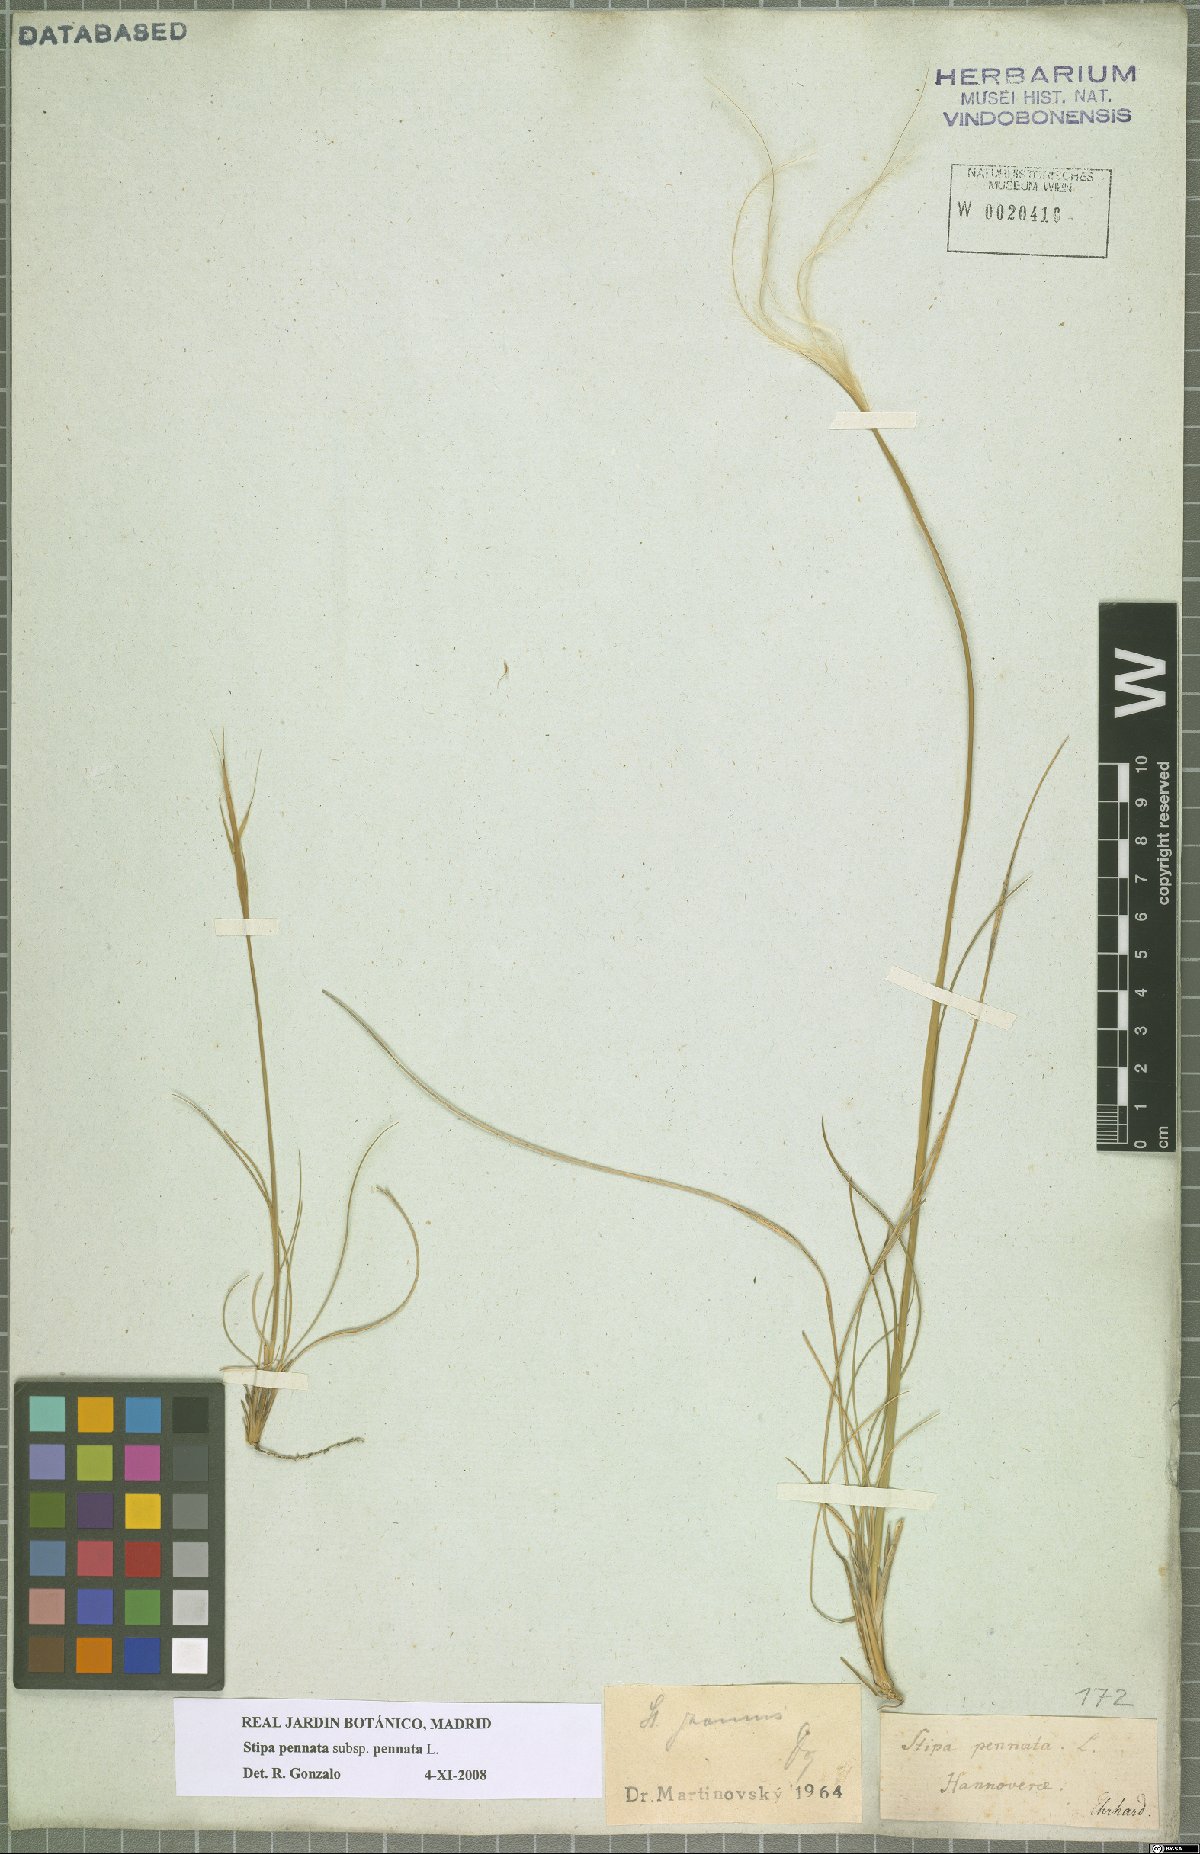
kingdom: Plantae
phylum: Tracheophyta
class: Liliopsida
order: Poales
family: Poaceae
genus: Stipa
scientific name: Stipa pennata
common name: European feather grass
